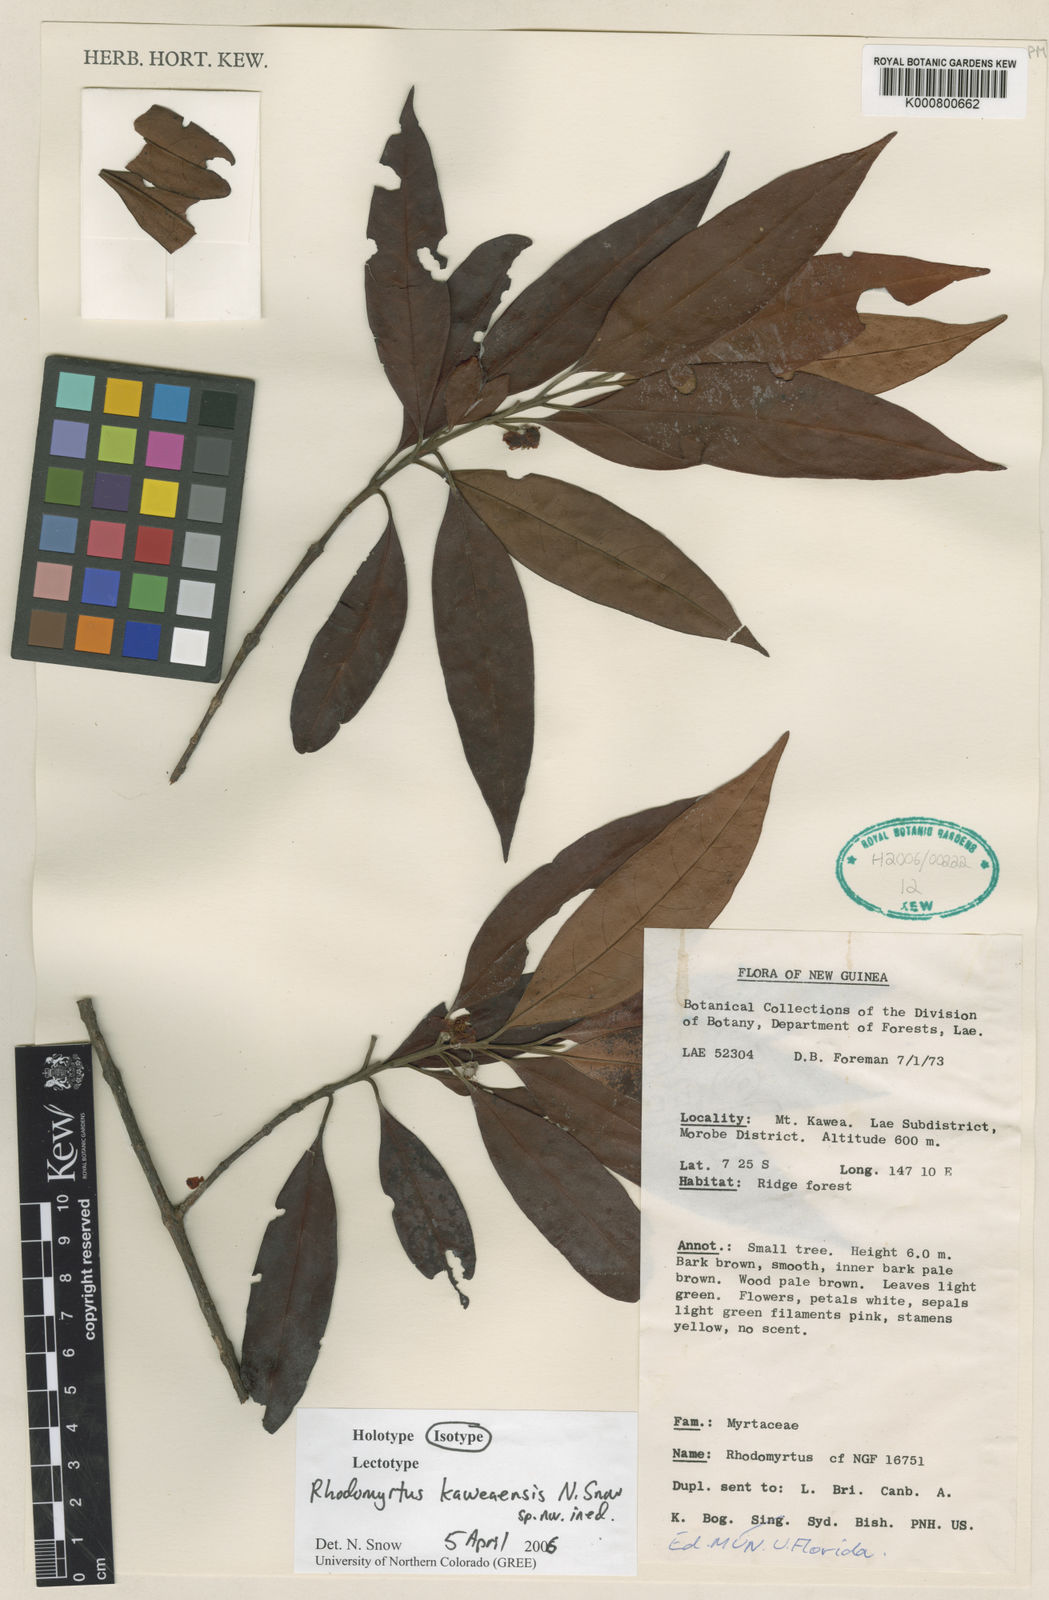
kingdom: Plantae
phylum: Tracheophyta
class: Magnoliopsida
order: Myrtales
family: Myrtaceae
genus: Rhodomyrtus
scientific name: Rhodomyrtus kaweaensis
